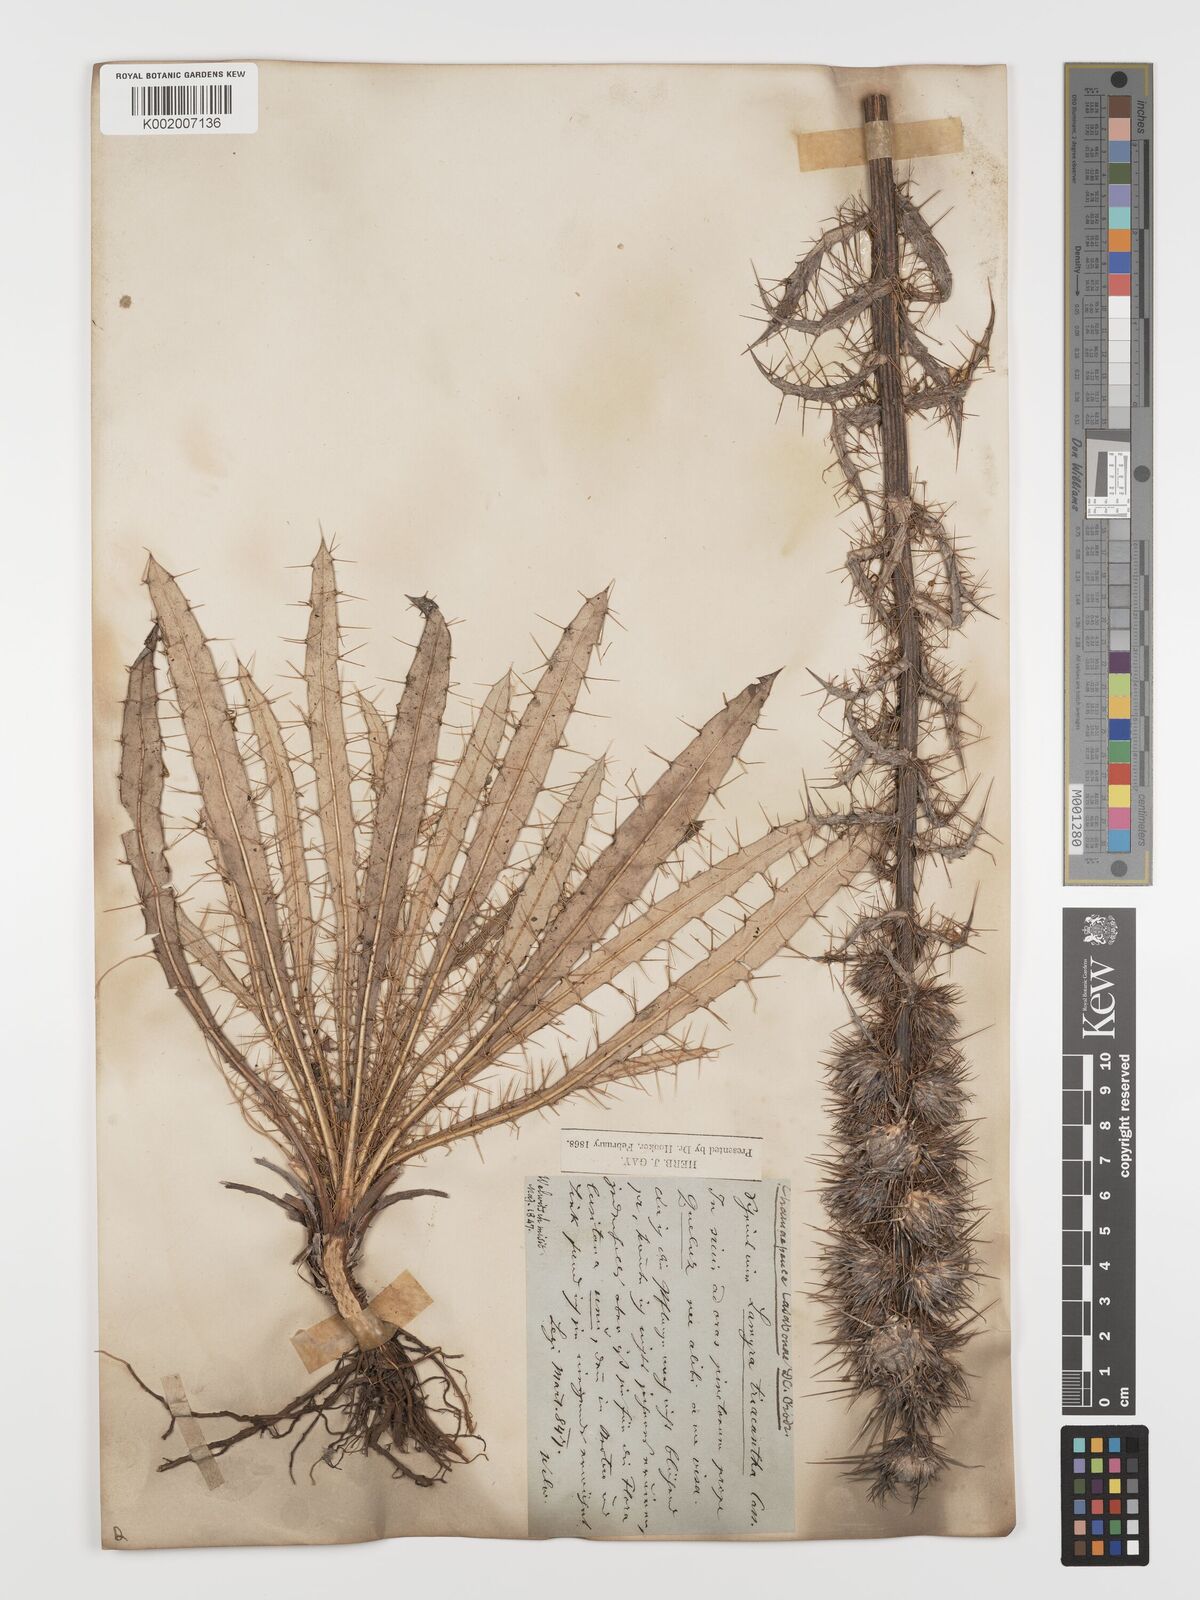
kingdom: Plantae
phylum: Tracheophyta
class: Magnoliopsida
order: Asterales
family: Asteraceae
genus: Ptilostemon
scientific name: Ptilostemon casabonae
